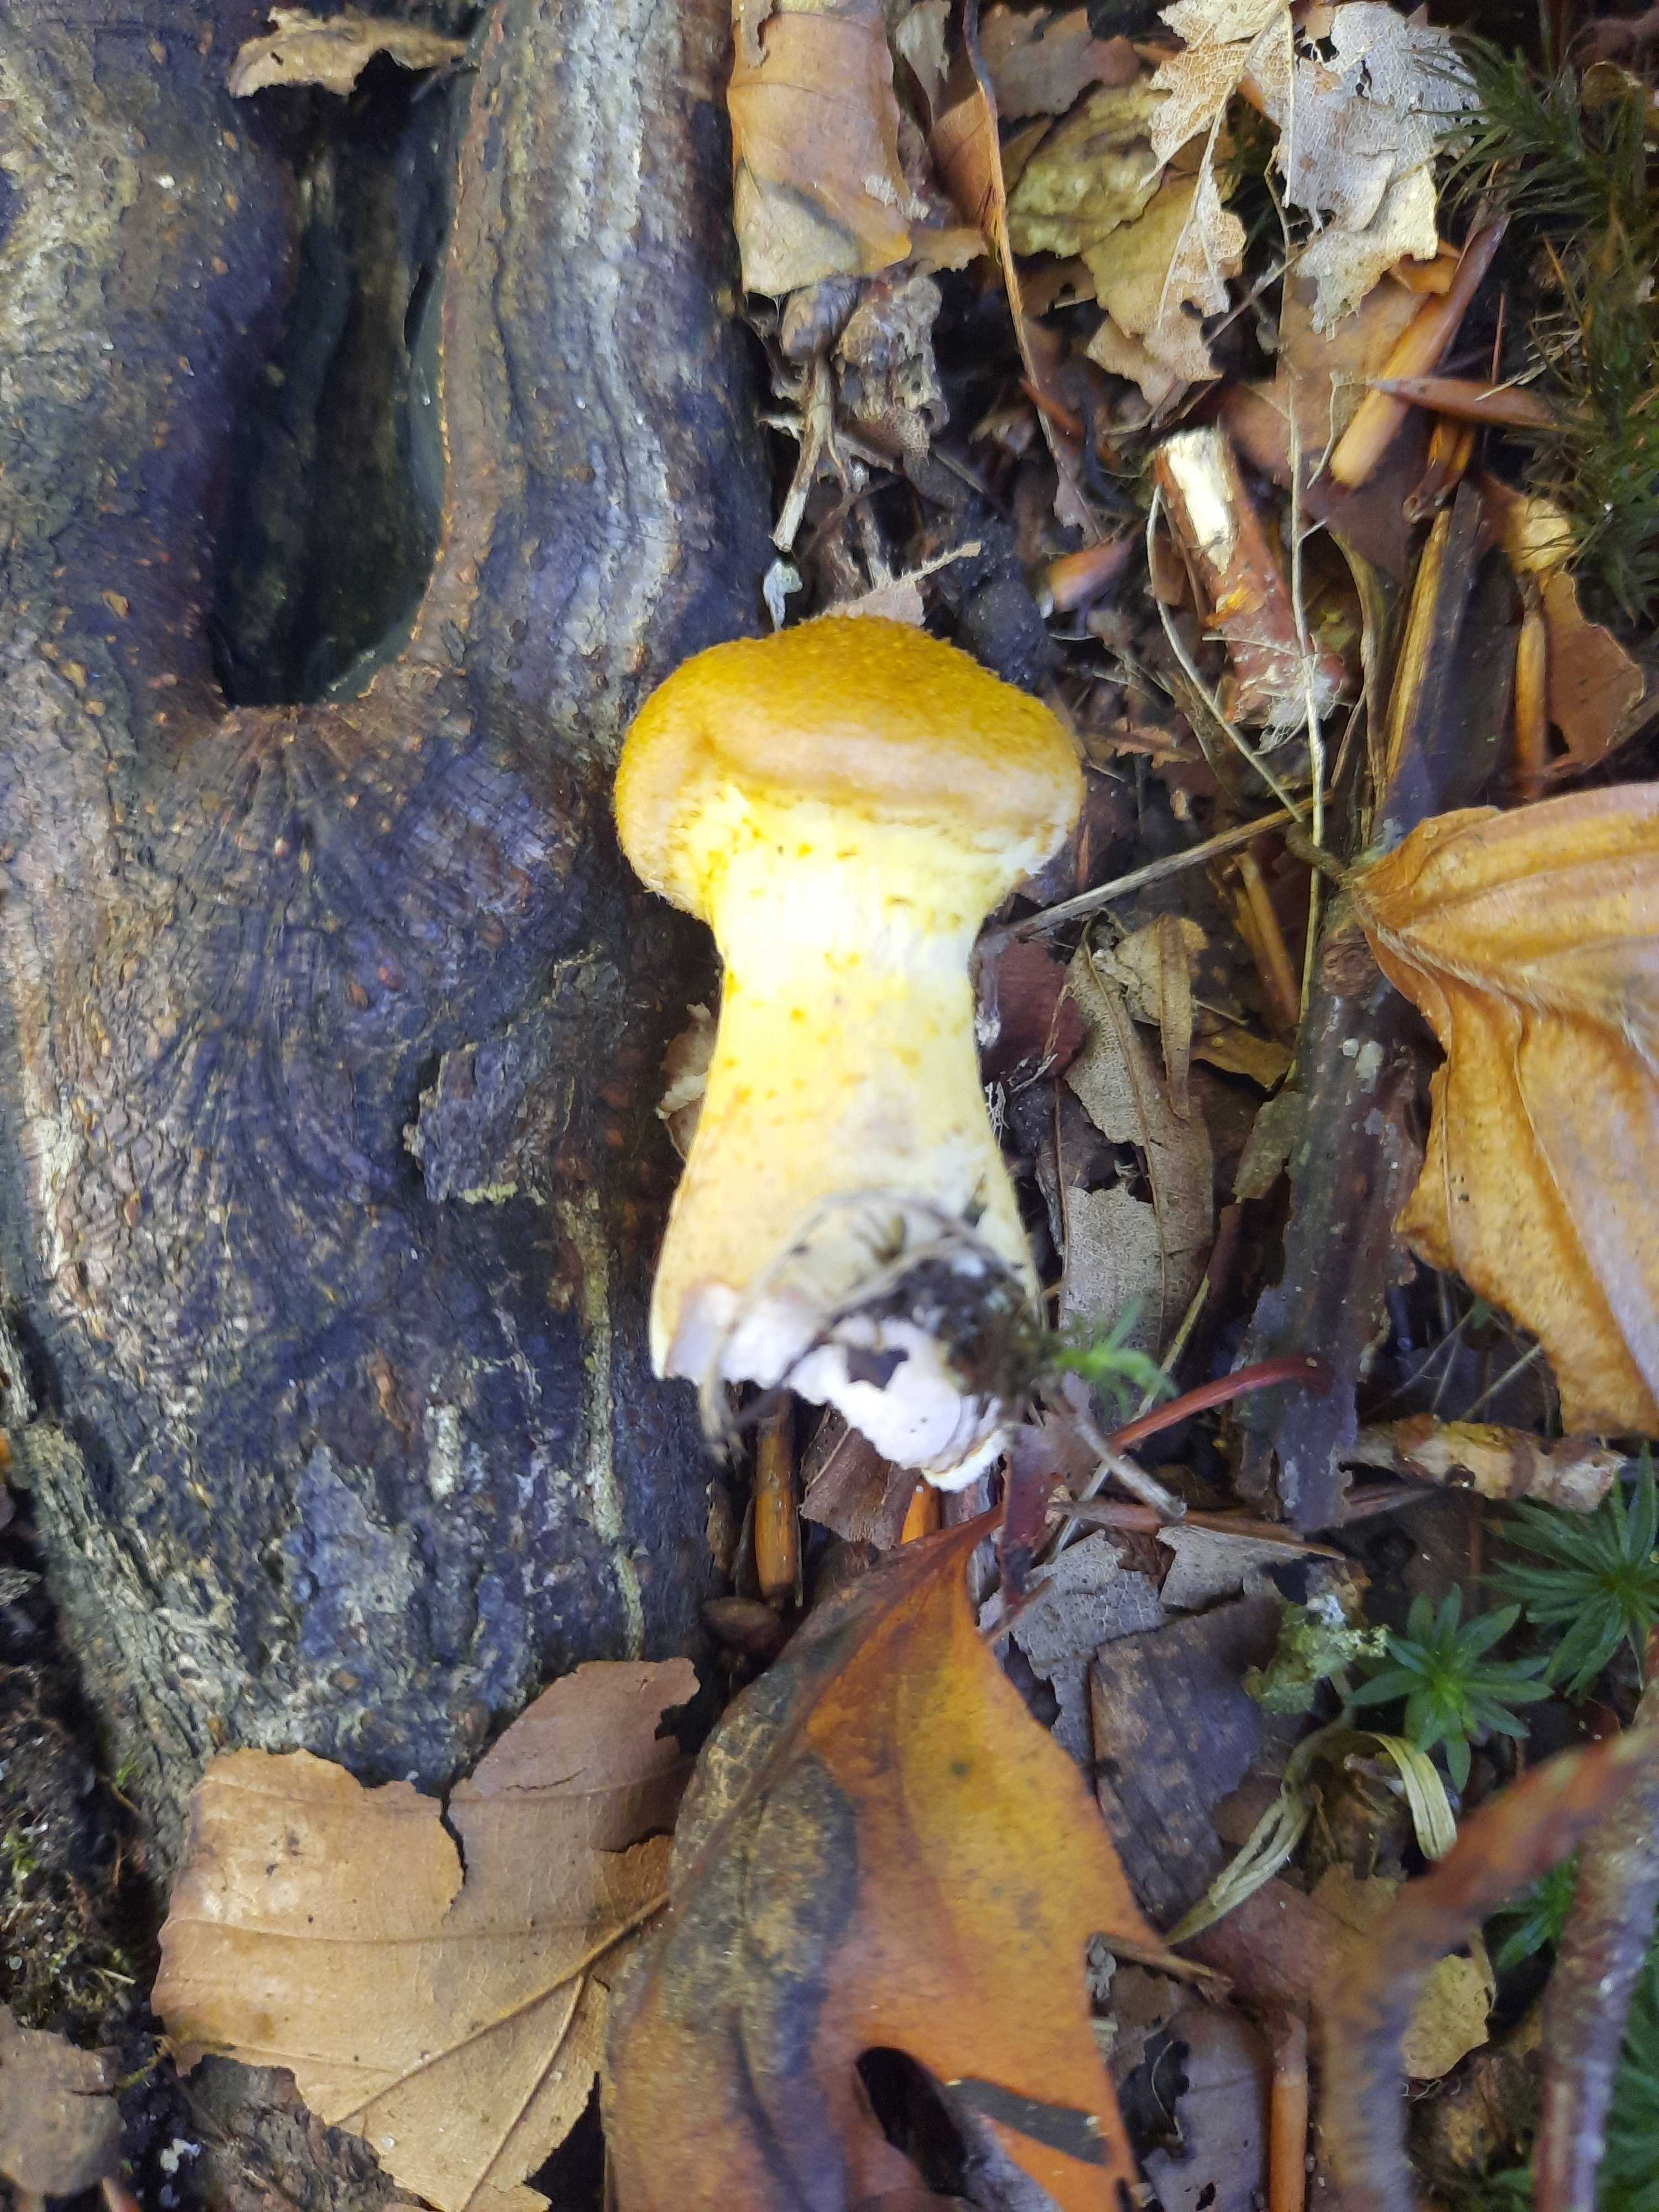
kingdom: Fungi
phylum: Basidiomycota
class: Agaricomycetes
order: Agaricales
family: Physalacriaceae
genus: Armillaria
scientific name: Armillaria lutea
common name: køllestokket honningsvamp
